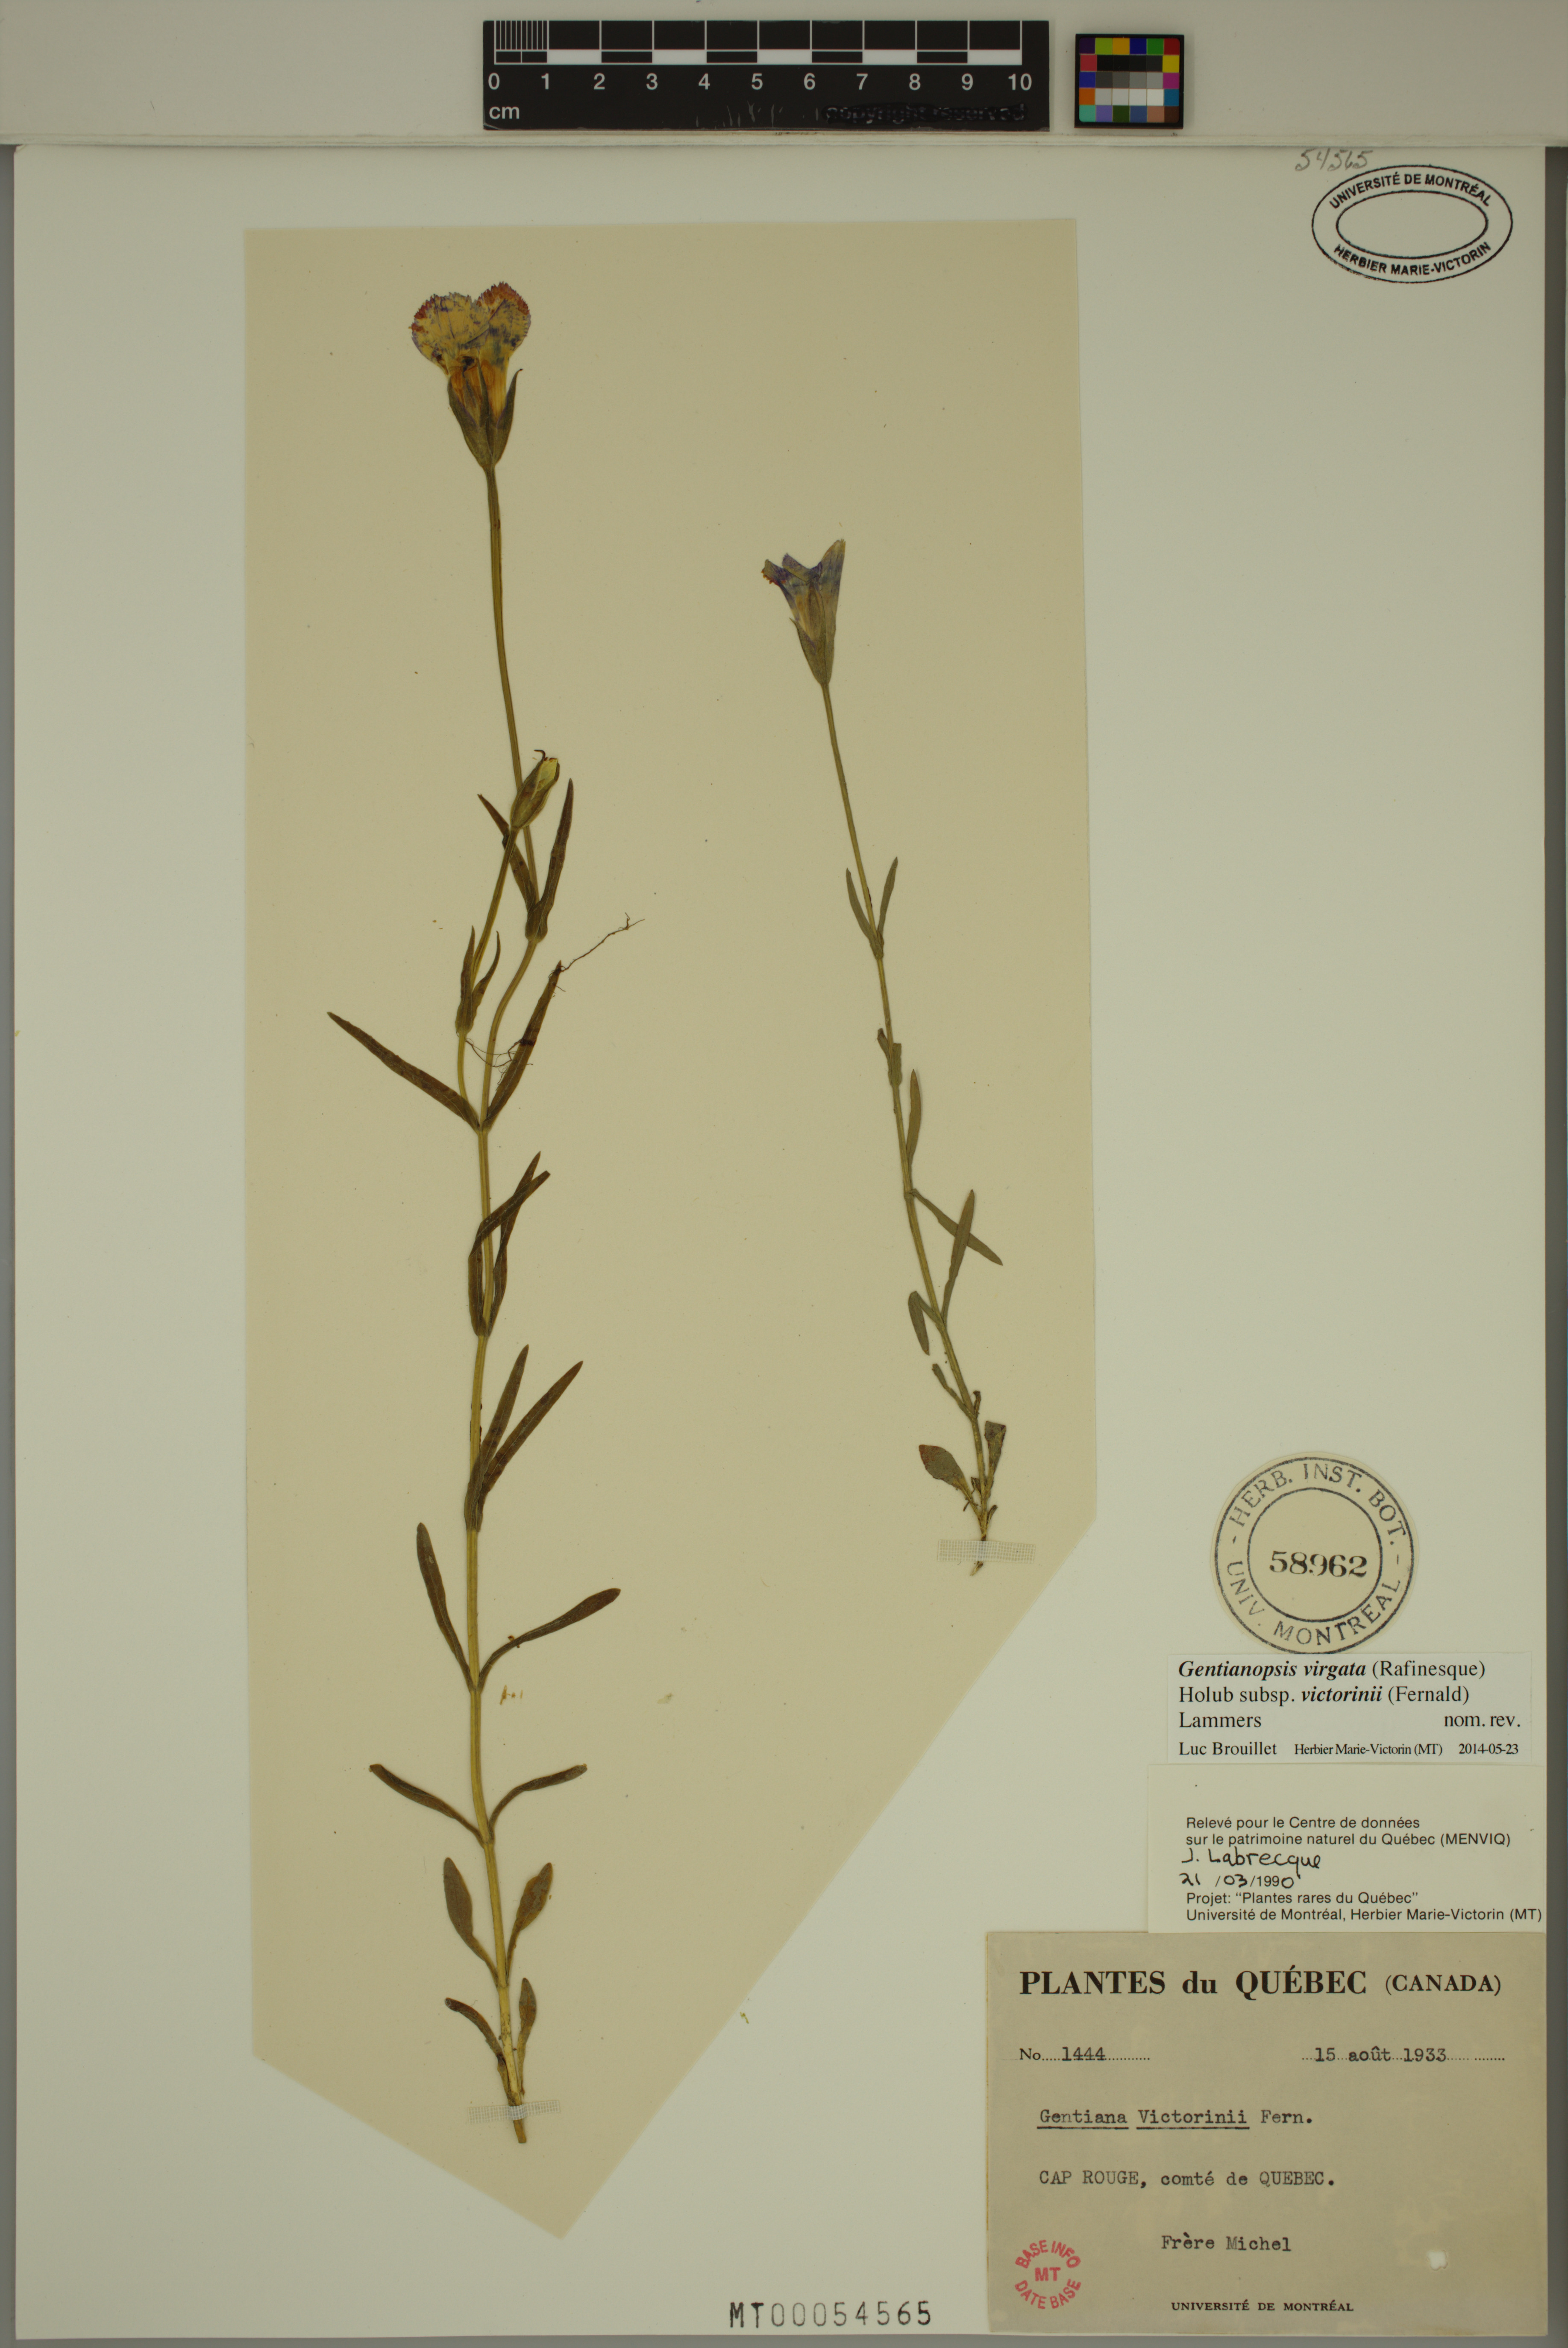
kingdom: Plantae
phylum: Tracheophyta
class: Magnoliopsida
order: Gentianales
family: Gentianaceae
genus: Gentianopsis
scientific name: Gentianopsis victorinii
